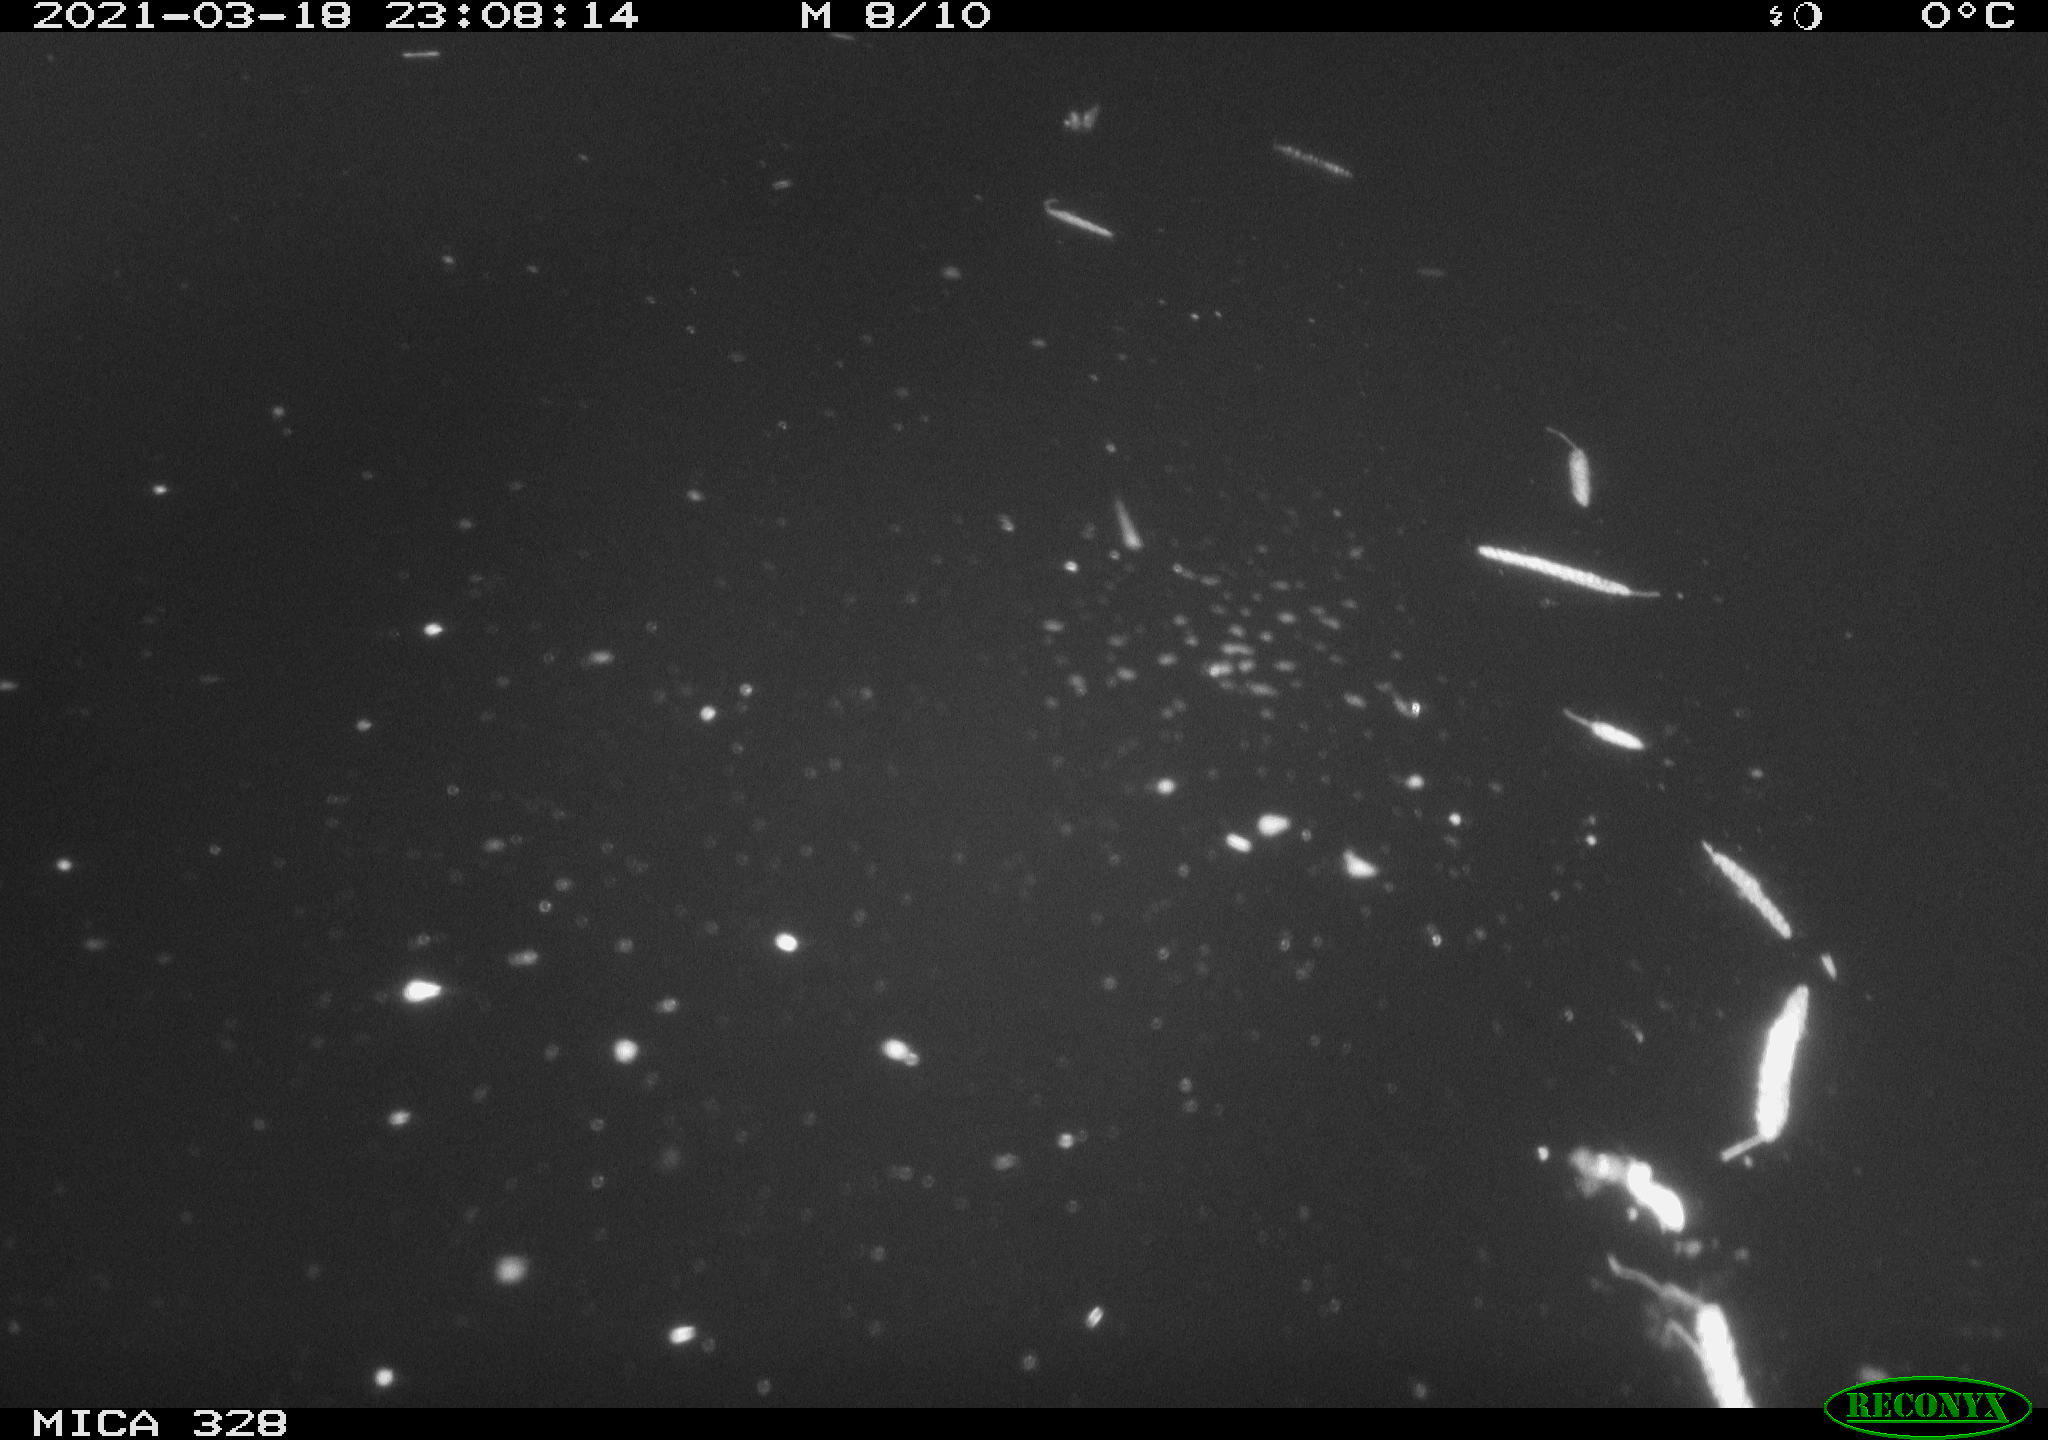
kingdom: Animalia
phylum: Chordata
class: Mammalia
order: Rodentia
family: Cricetidae
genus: Ondatra
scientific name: Ondatra zibethicus
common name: Muskrat
